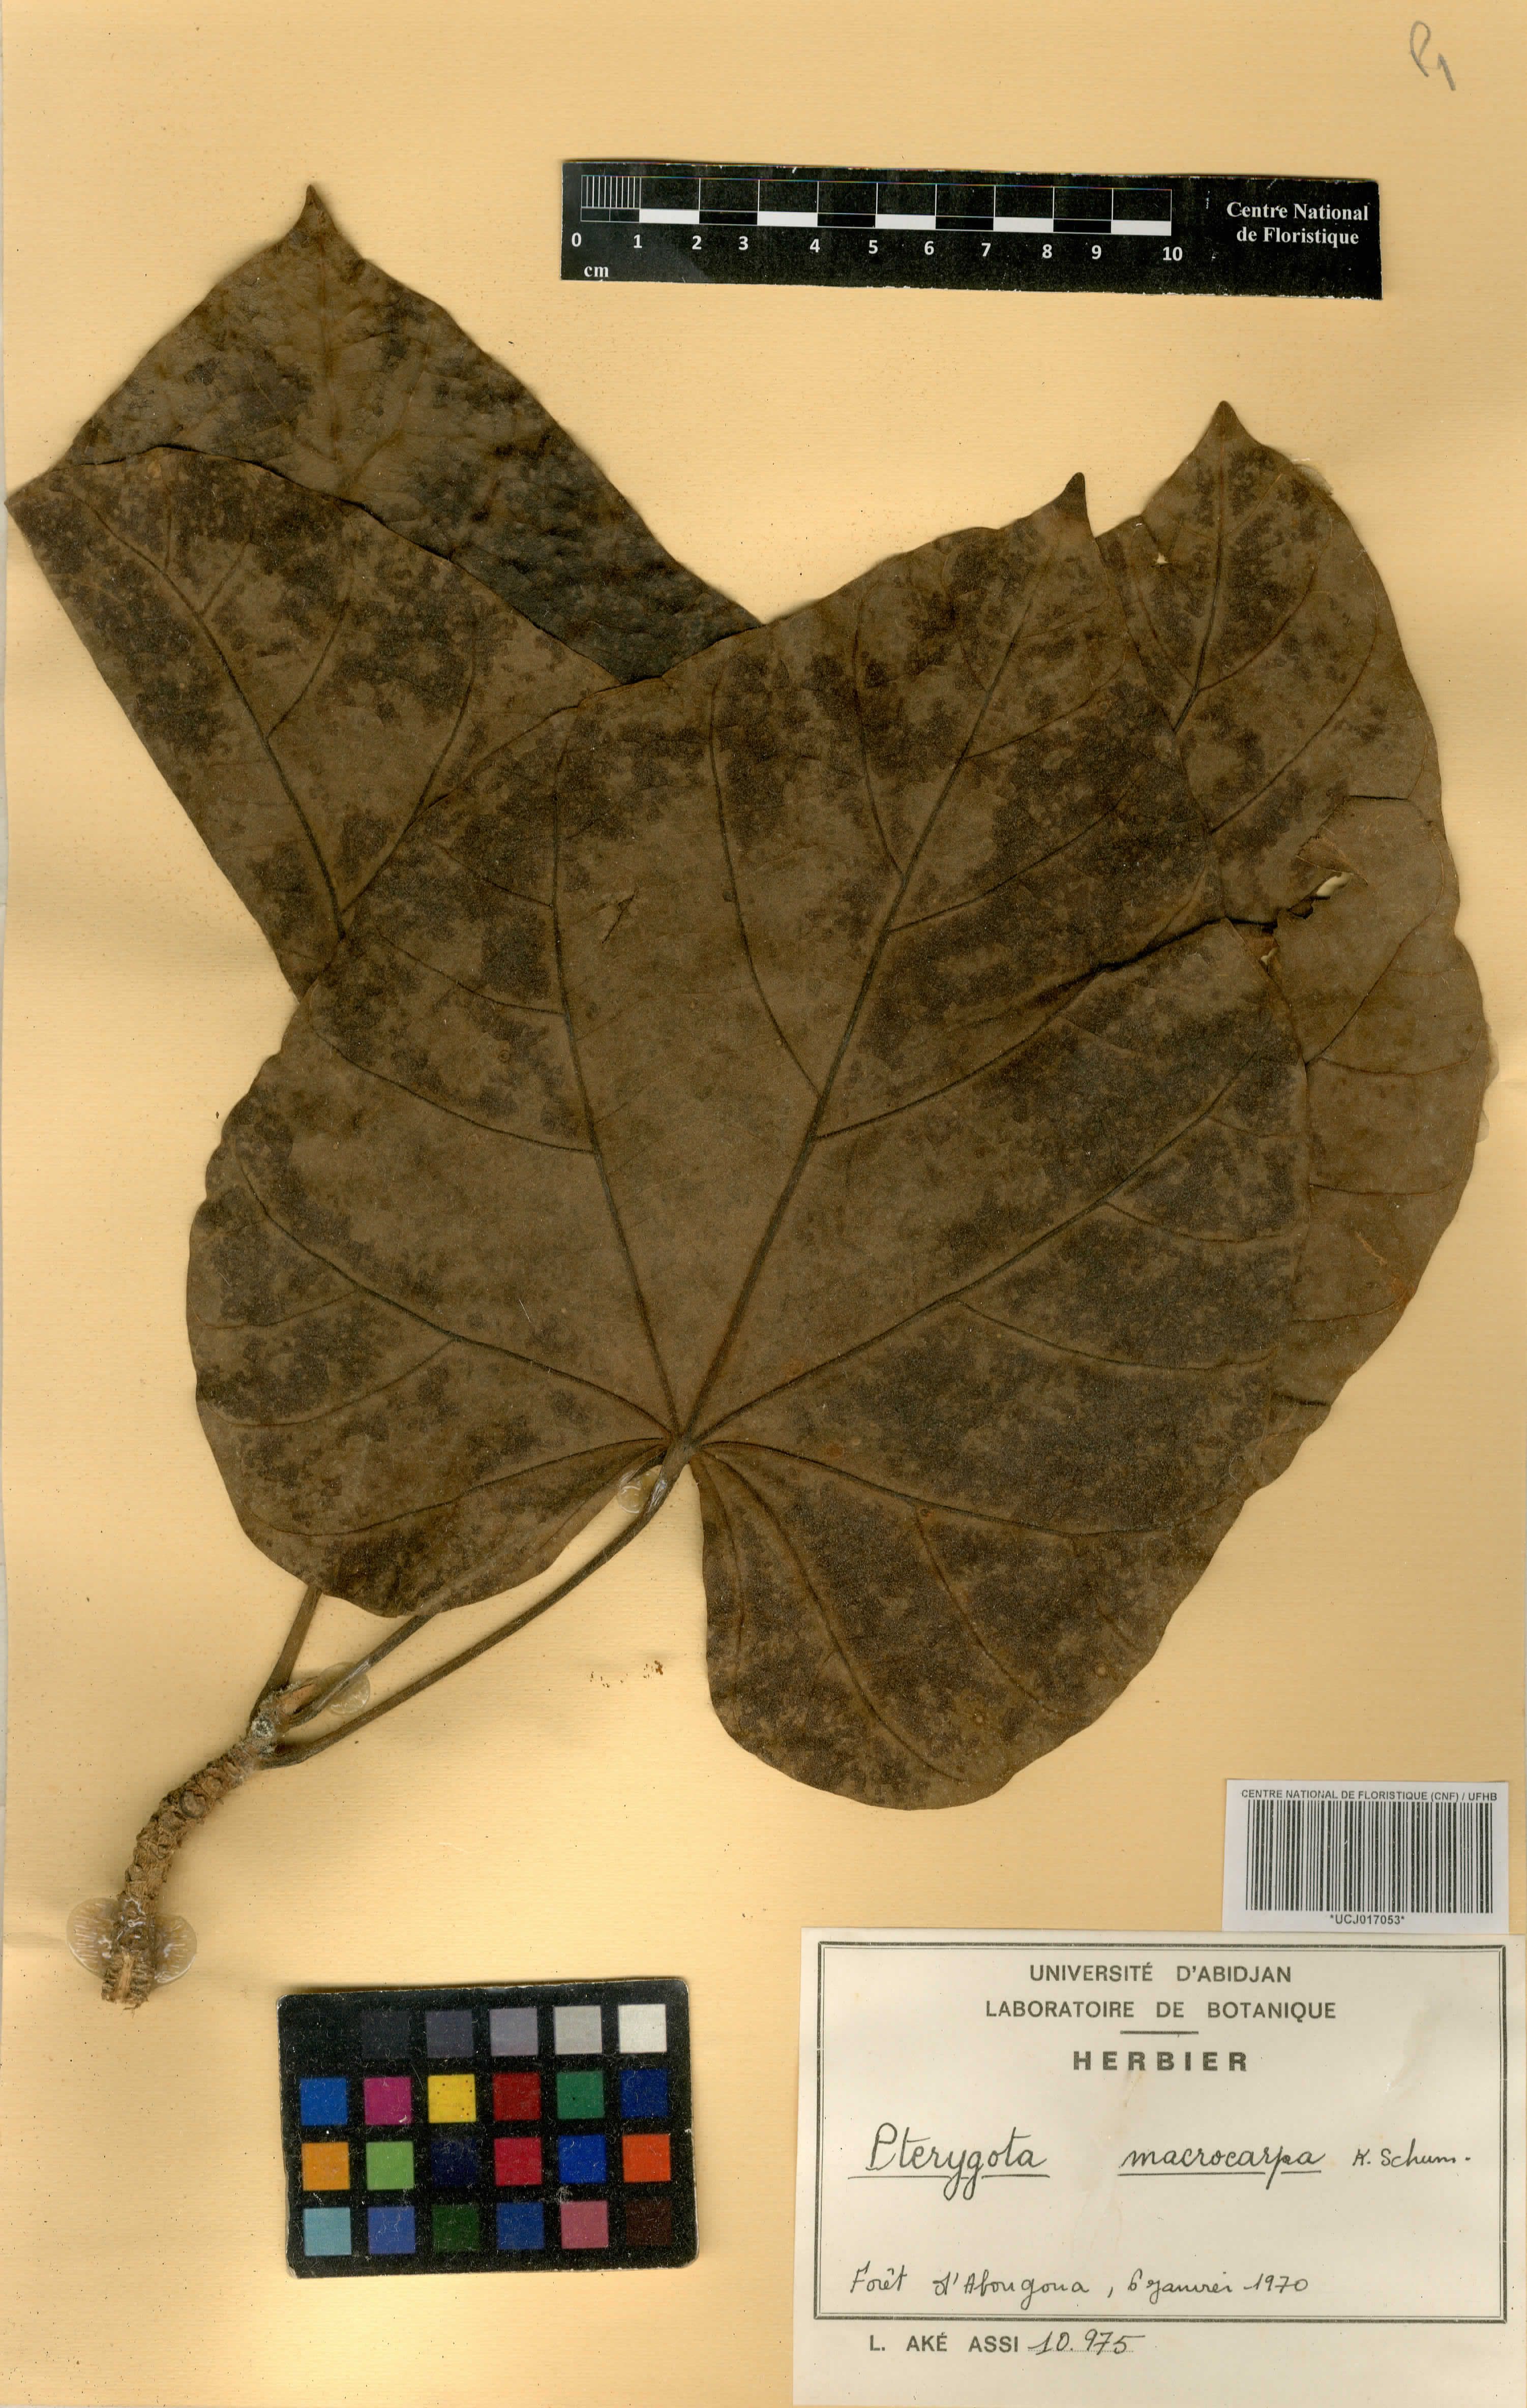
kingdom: Plantae
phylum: Tracheophyta
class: Magnoliopsida
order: Malvales
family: Malvaceae
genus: Pterygota
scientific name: Pterygota macrocarpa
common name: African pterygota
